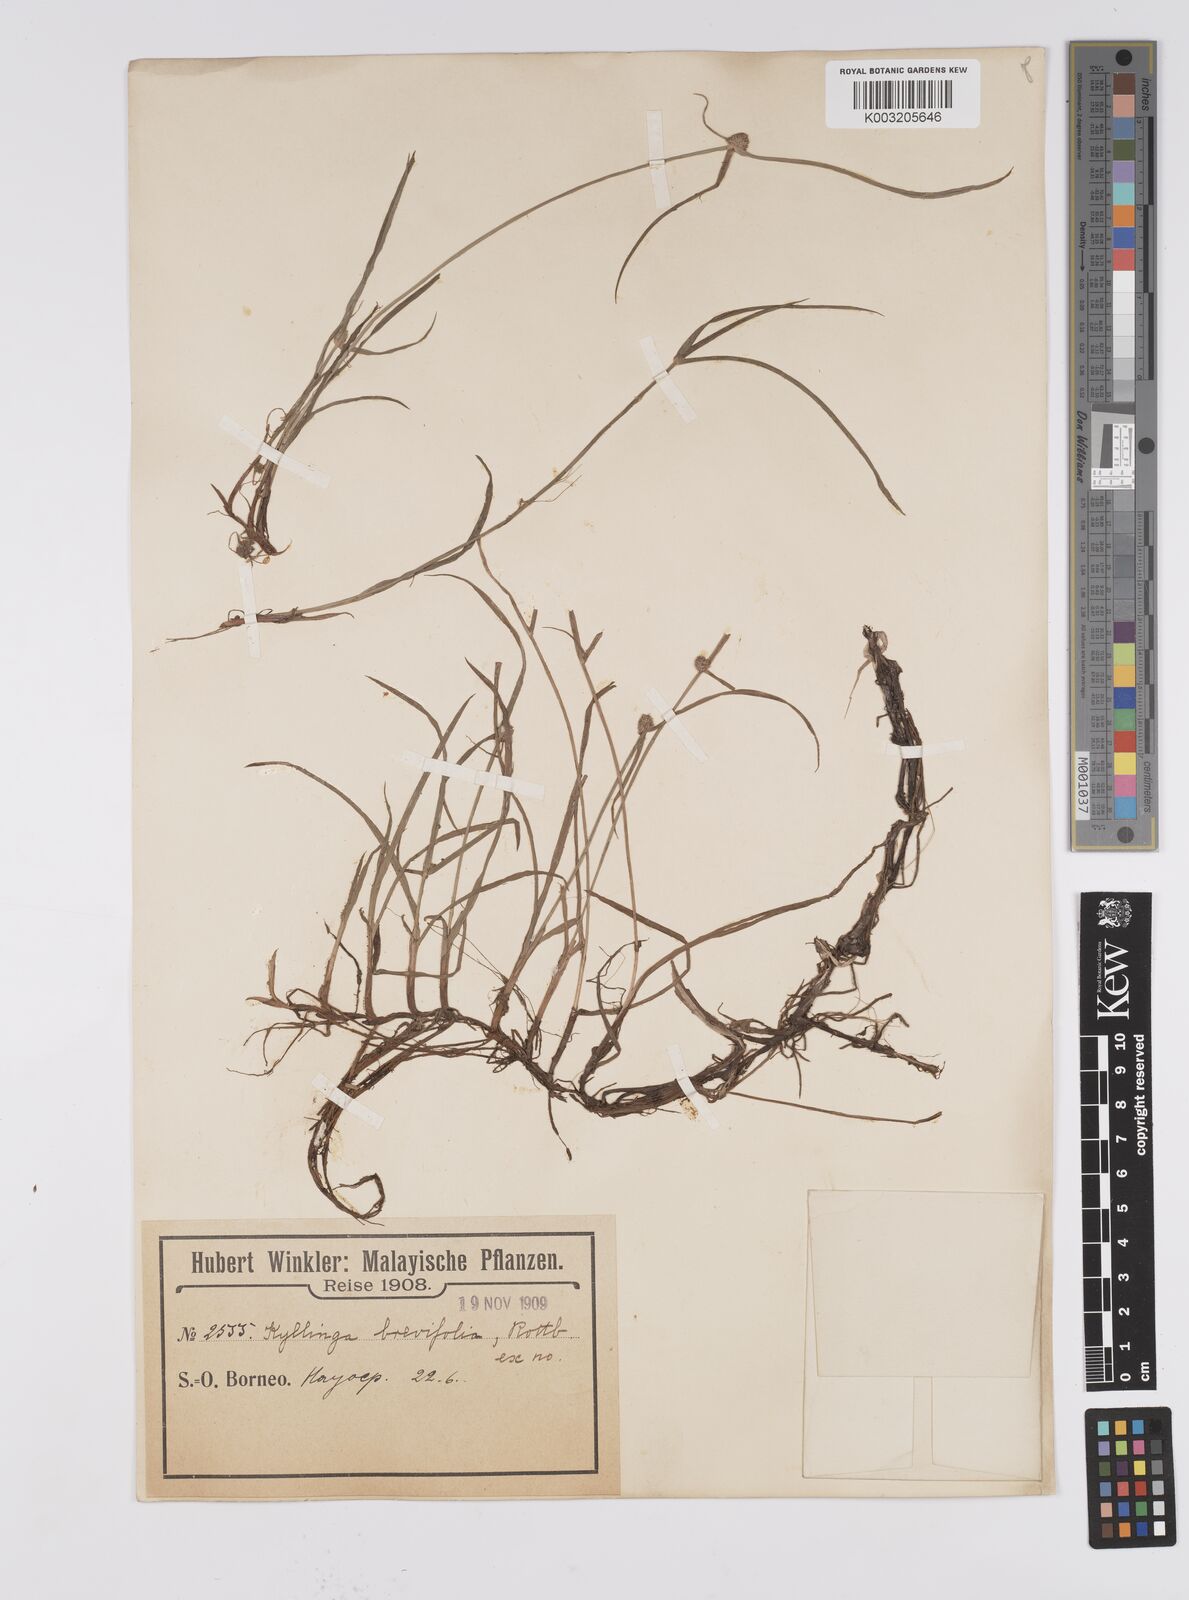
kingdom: Plantae
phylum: Tracheophyta
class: Liliopsida
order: Poales
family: Cyperaceae
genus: Cyperus
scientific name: Cyperus brevifolius
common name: Globe kyllinga
